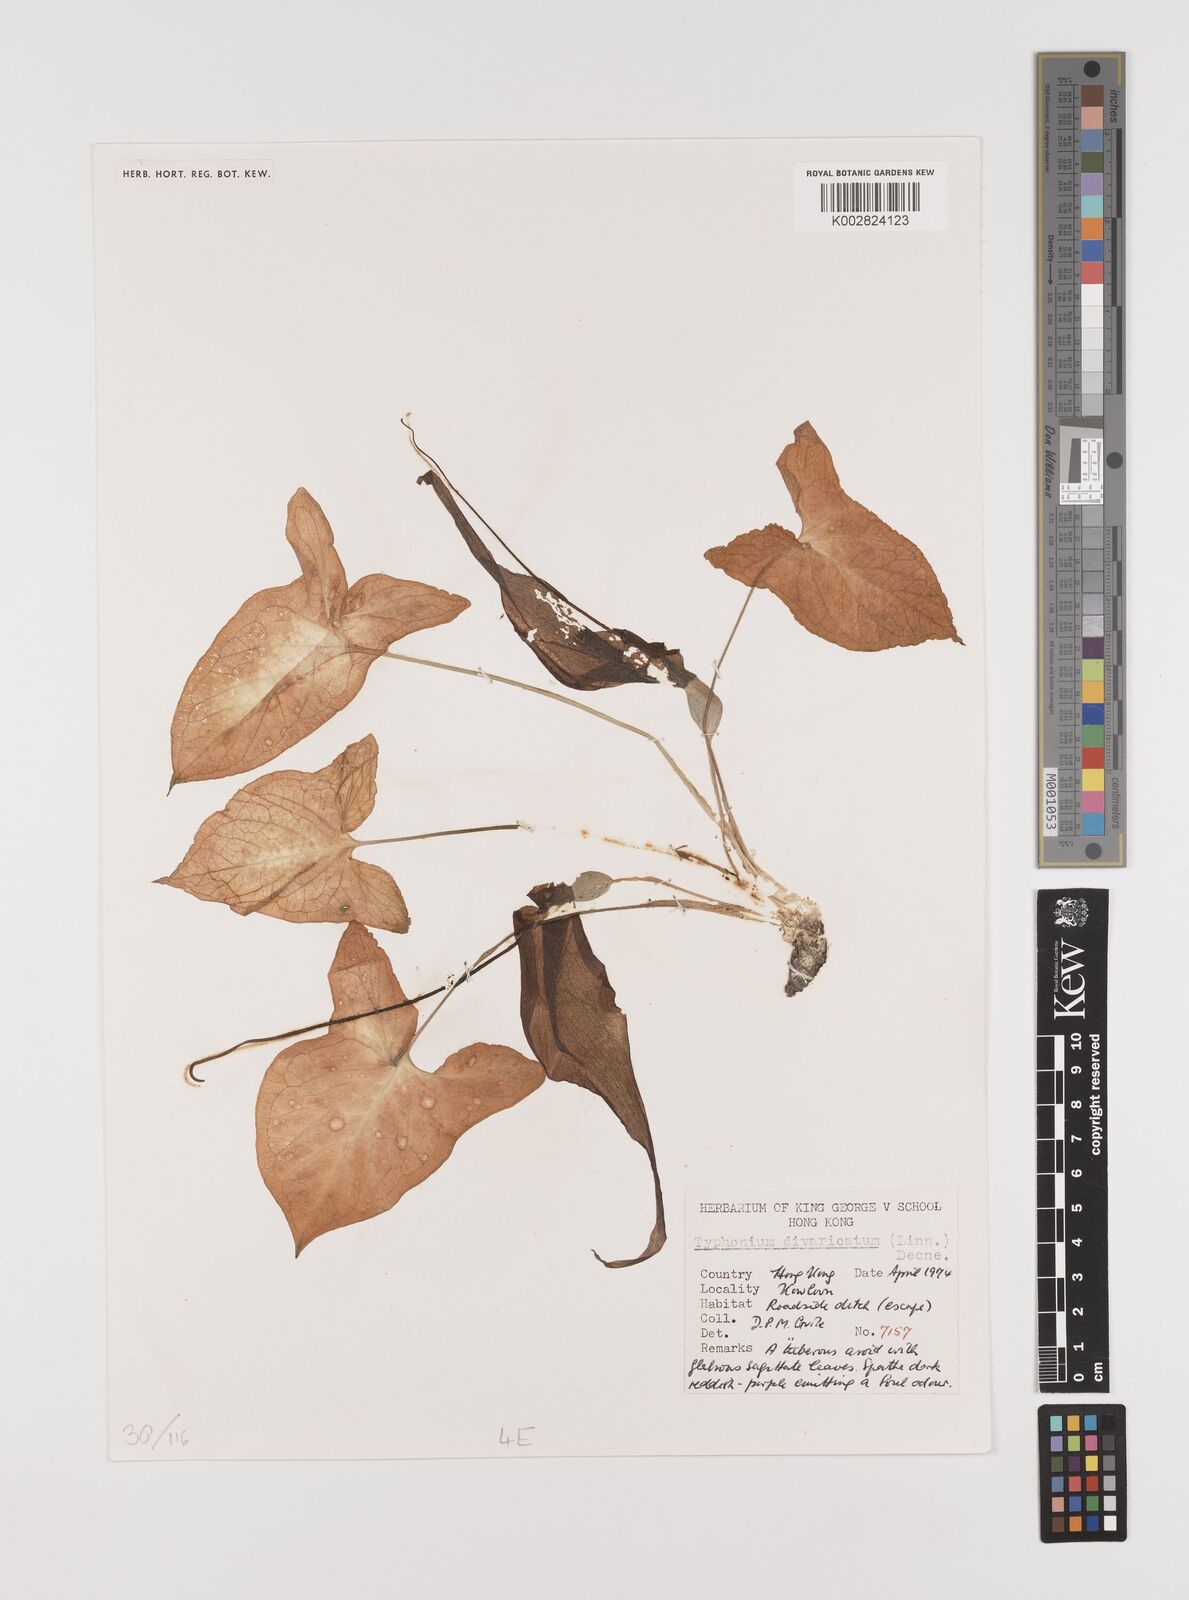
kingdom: Plantae
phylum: Tracheophyta
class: Liliopsida
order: Alismatales
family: Araceae
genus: Typhonium
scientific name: Typhonium roxburghii
